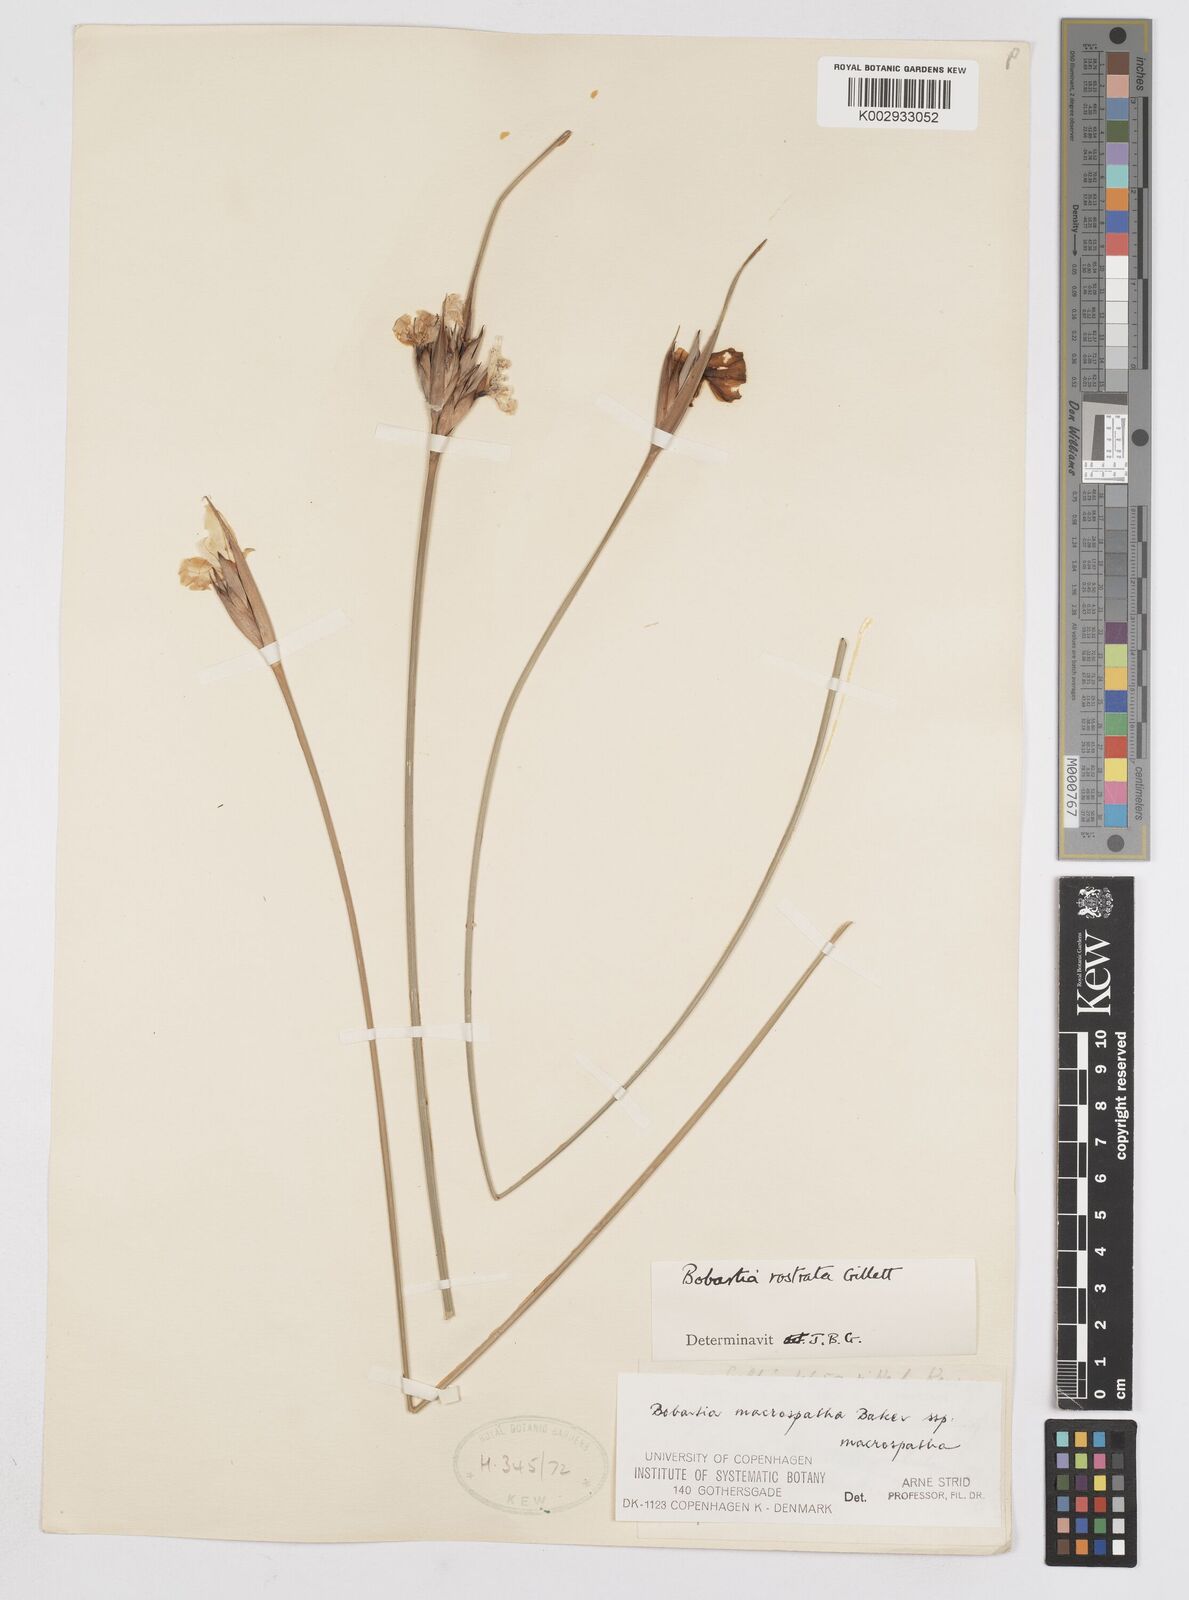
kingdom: Plantae
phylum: Tracheophyta
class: Liliopsida
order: Asparagales
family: Iridaceae
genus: Bobartia
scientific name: Bobartia macrospatha
